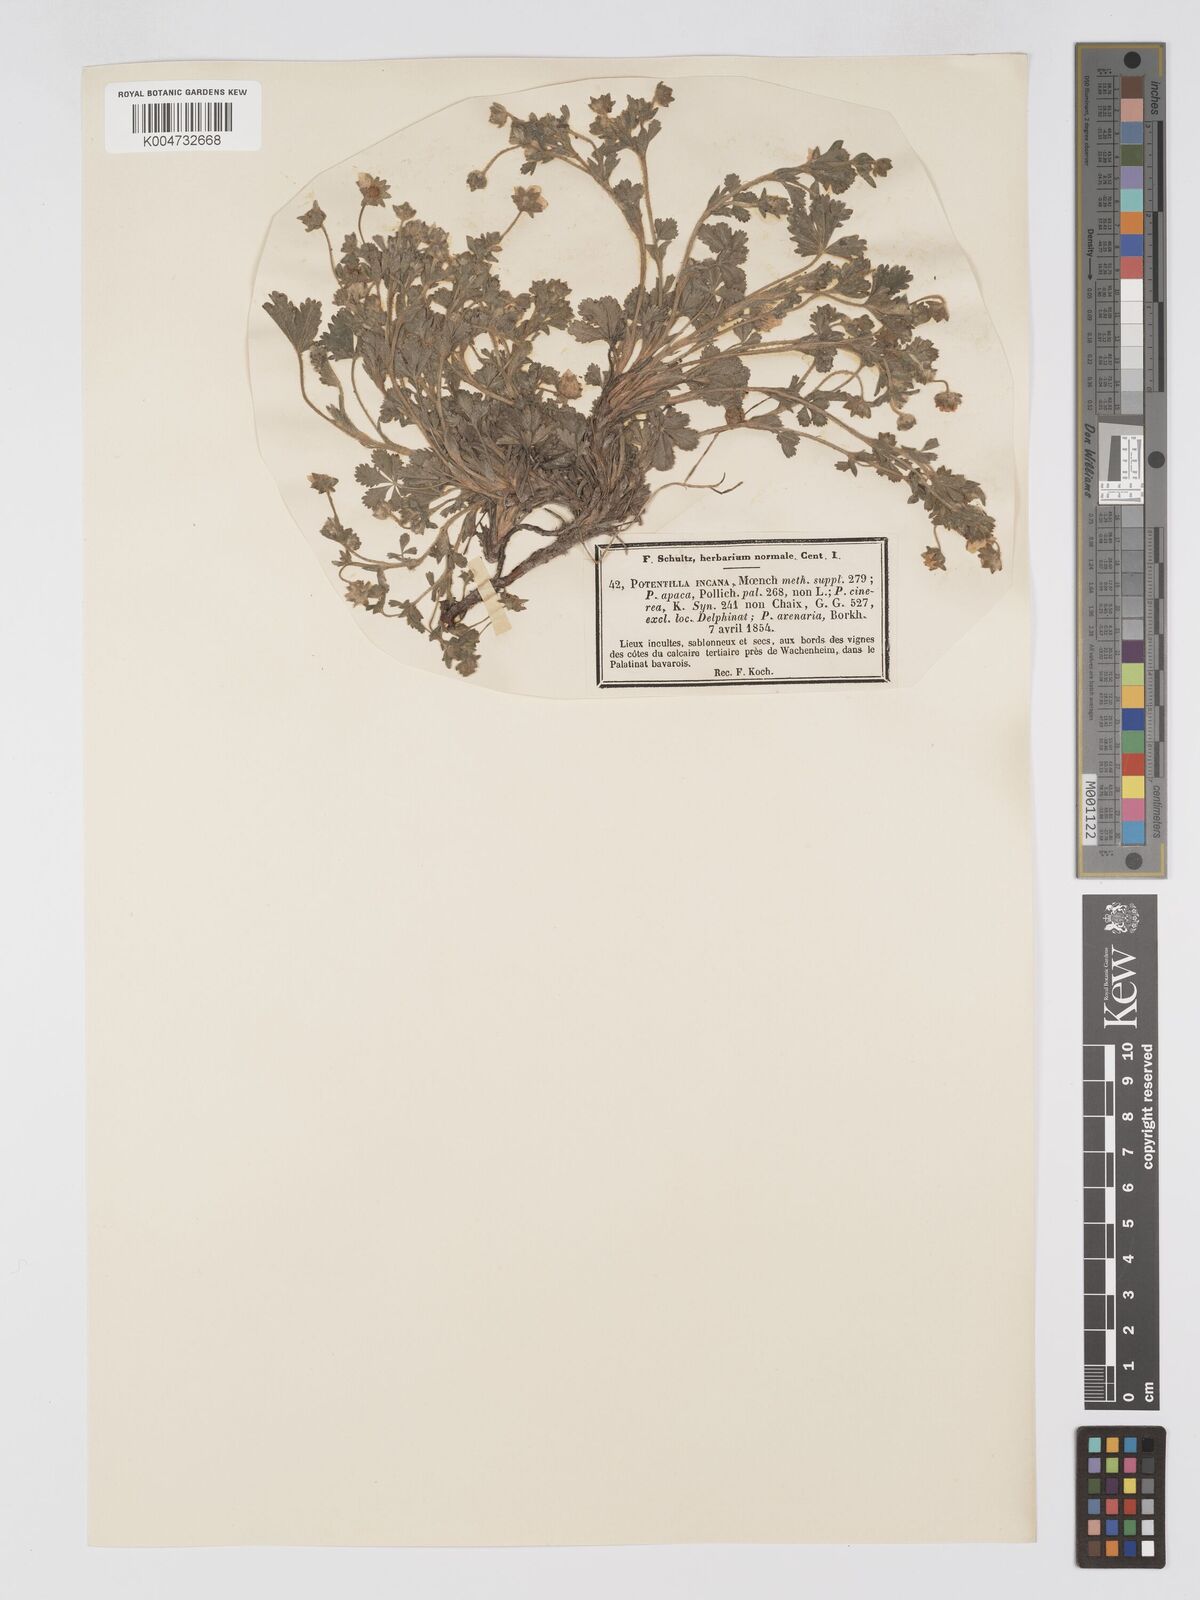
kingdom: Plantae
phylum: Tracheophyta
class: Magnoliopsida
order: Rosales
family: Rosaceae
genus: Potentilla
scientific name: Potentilla cinerea
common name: Ashy cinquefoil
